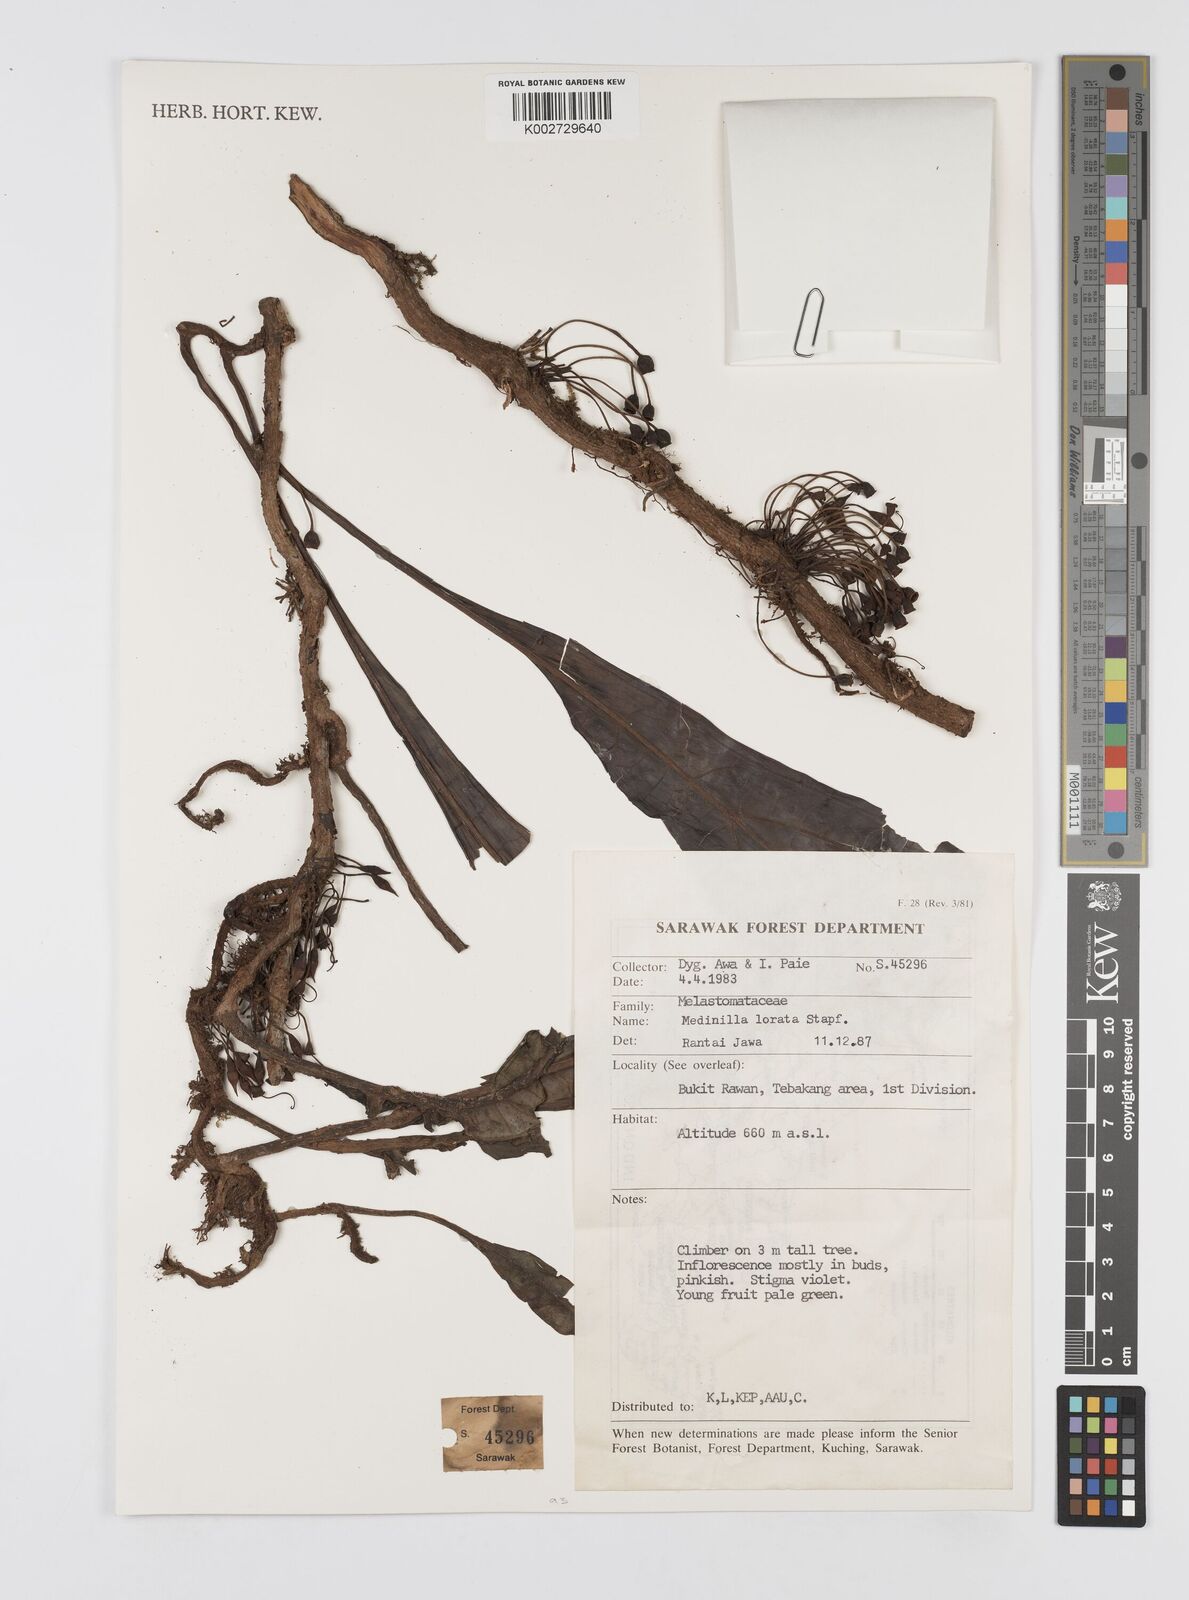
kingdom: Plantae
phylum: Tracheophyta
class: Magnoliopsida
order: Myrtales
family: Melastomataceae
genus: Heteroblemma
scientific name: Heteroblemma loratum
